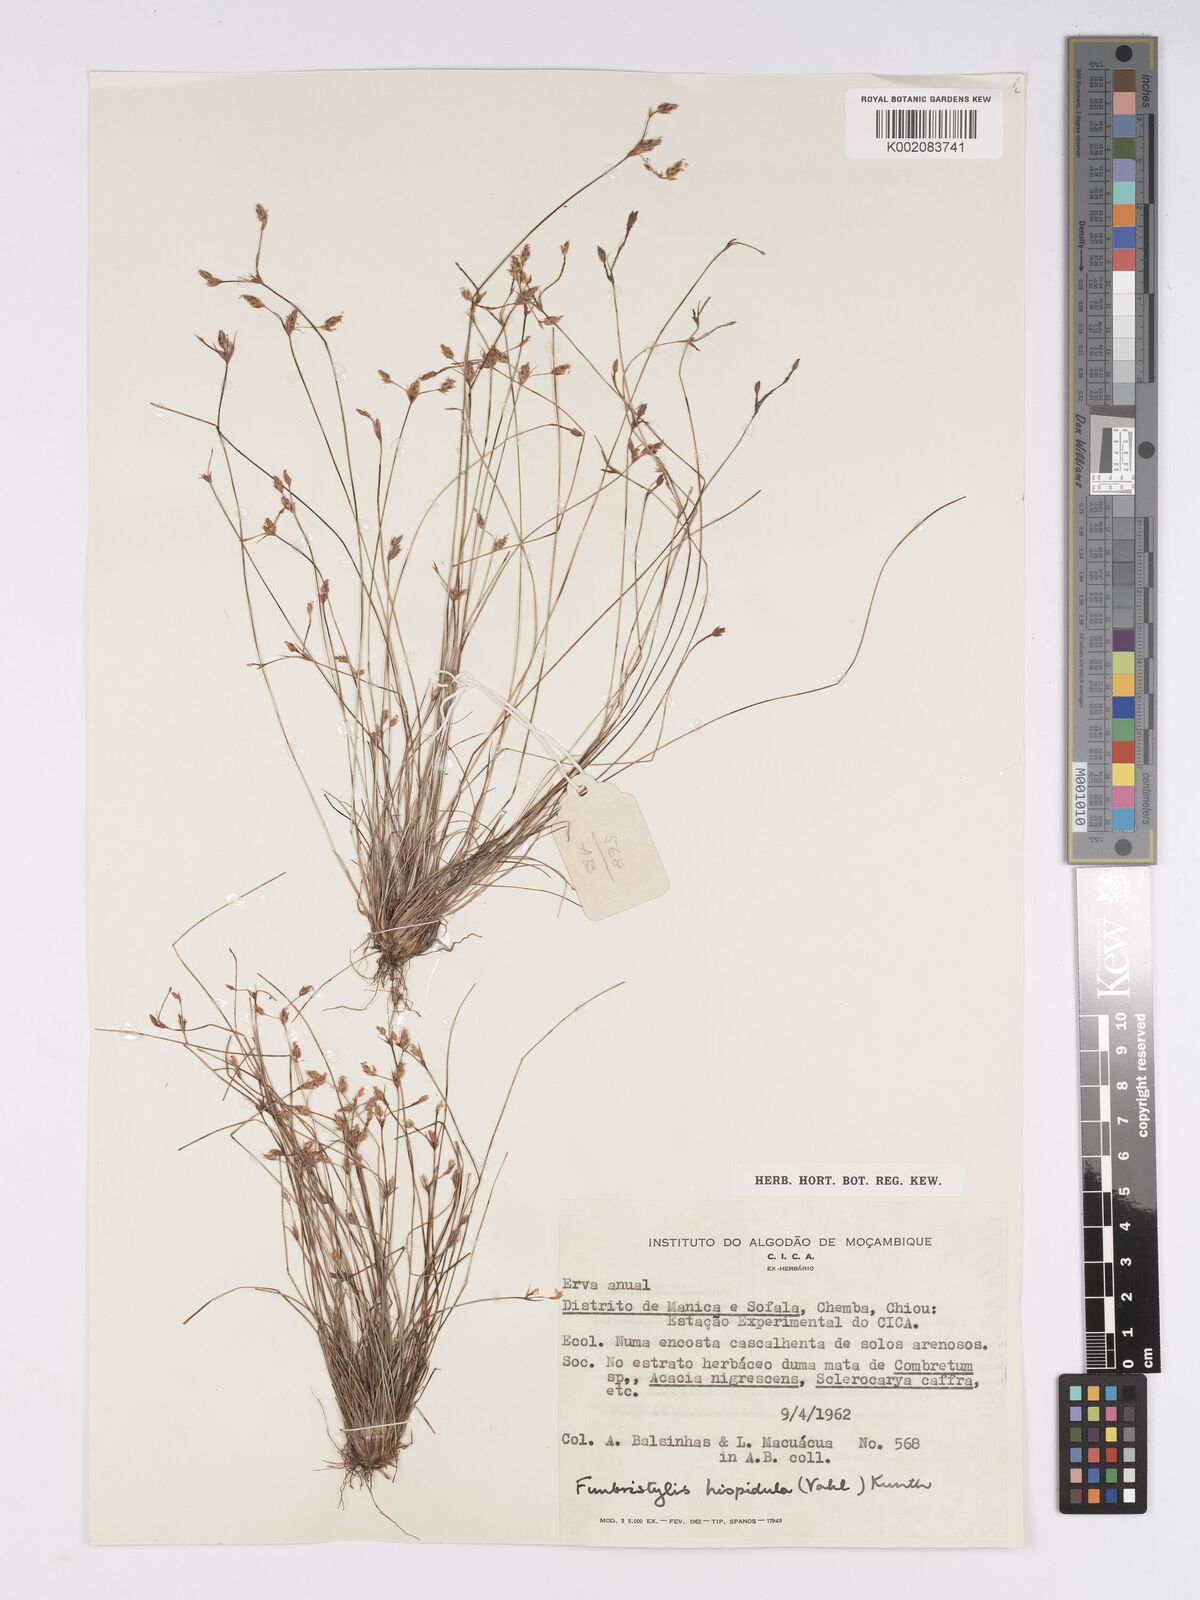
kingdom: Plantae
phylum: Tracheophyta
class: Liliopsida
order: Poales
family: Cyperaceae
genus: Bulbostylis
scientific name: Bulbostylis hispidula
